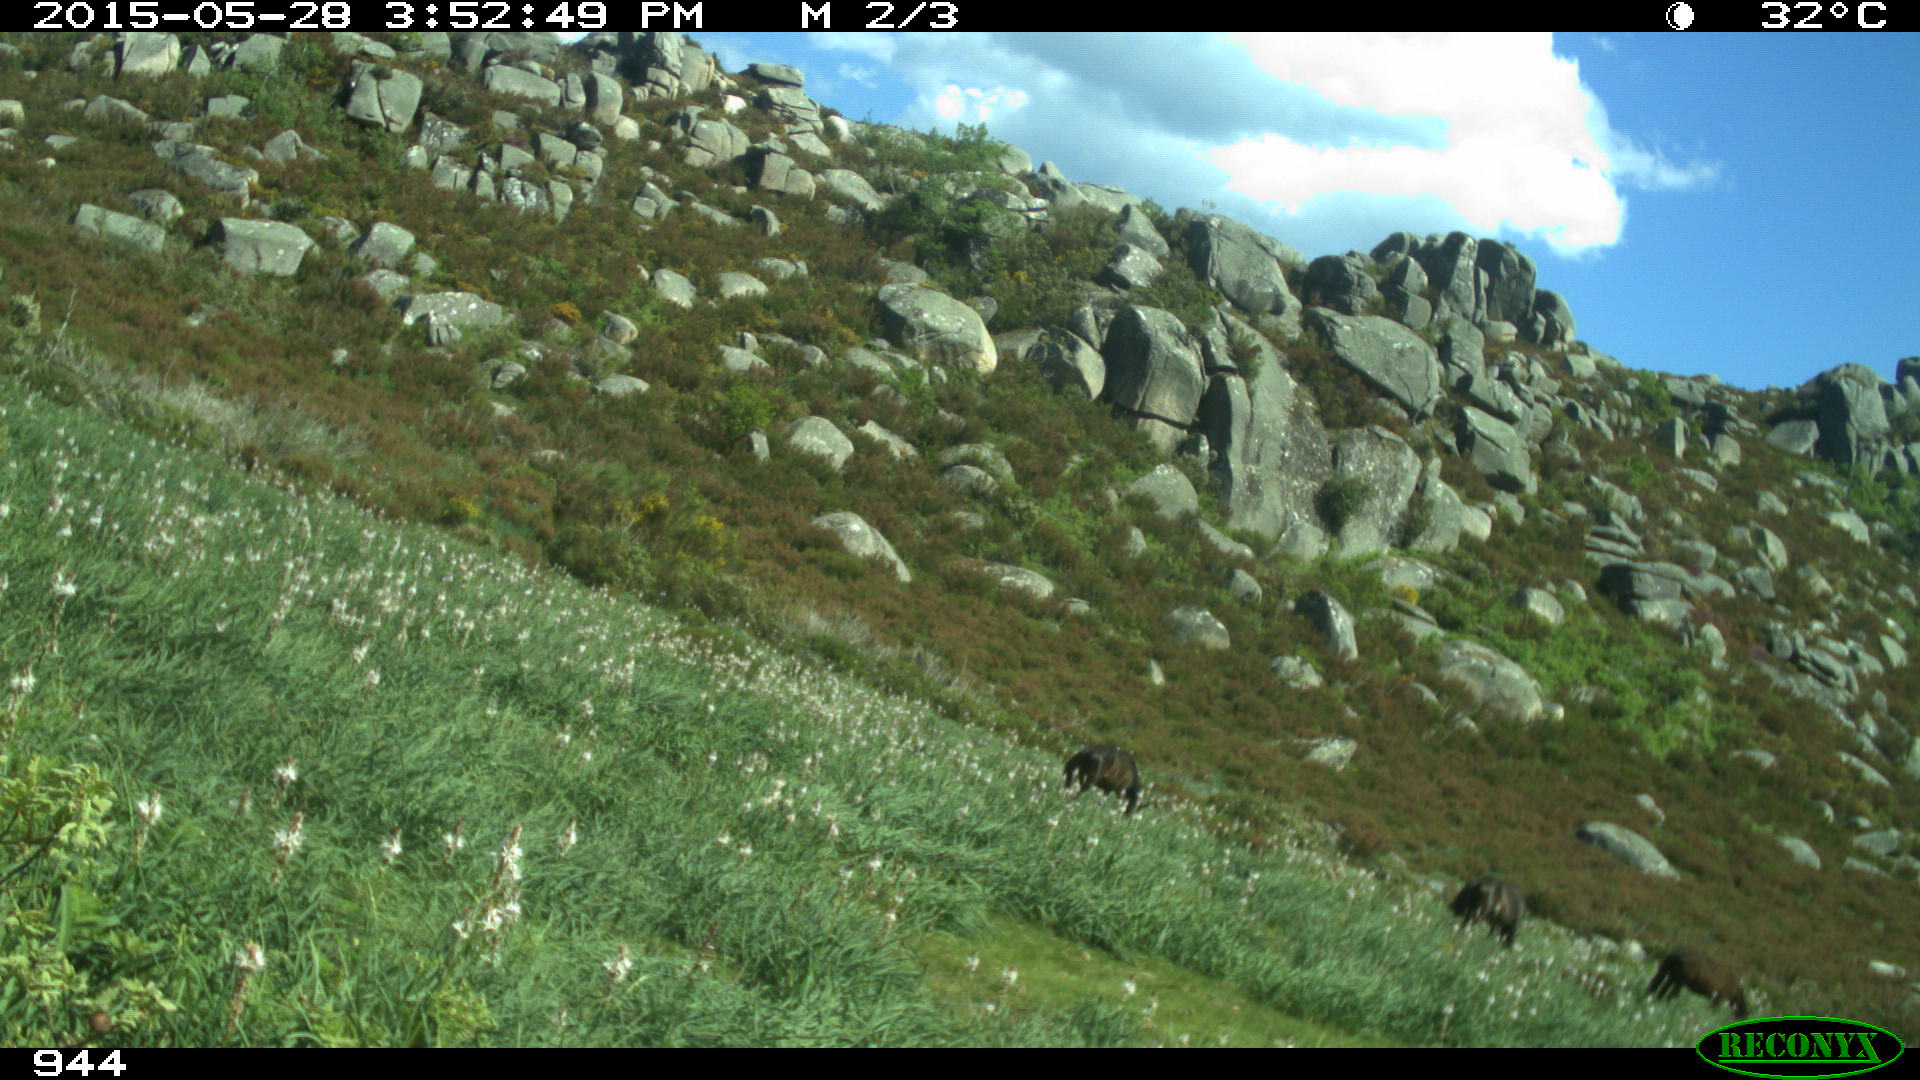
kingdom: Animalia
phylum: Chordata
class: Mammalia
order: Perissodactyla
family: Equidae
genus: Equus
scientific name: Equus caballus
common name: Horse
